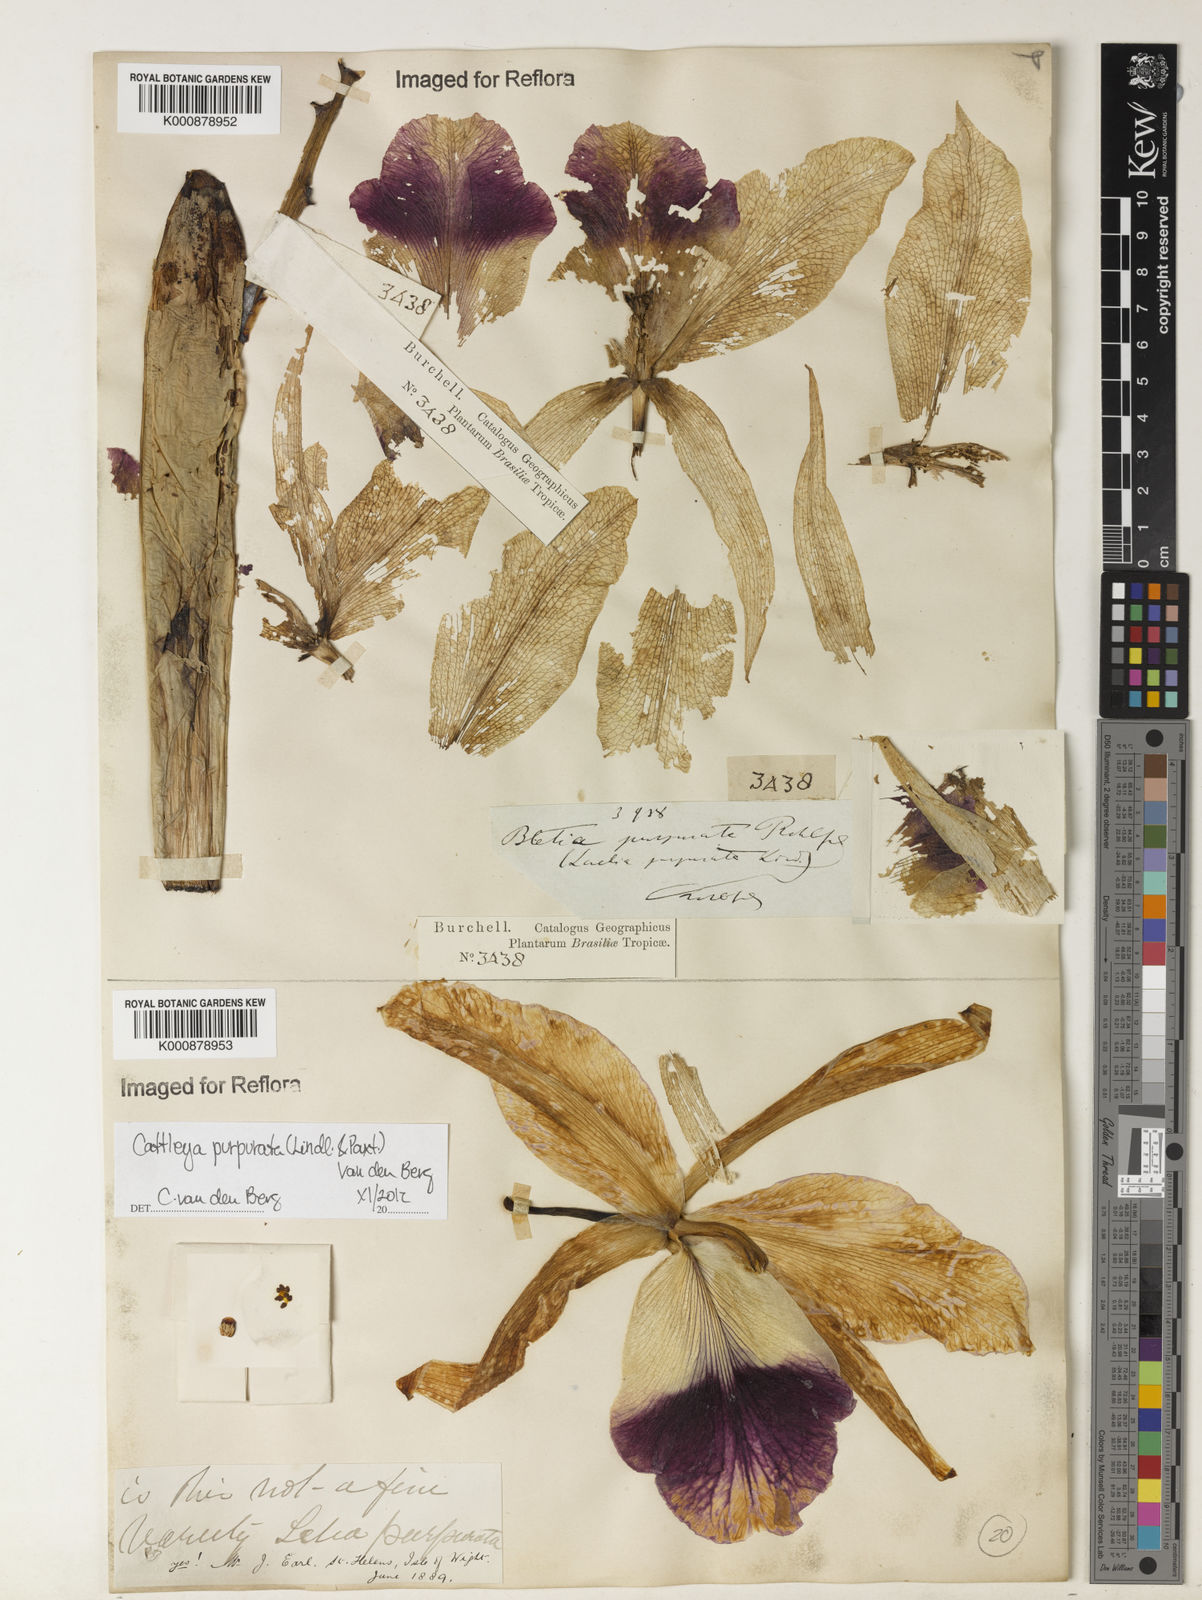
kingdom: Plantae
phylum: Tracheophyta
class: Liliopsida
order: Asparagales
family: Orchidaceae
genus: Cattleya
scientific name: Cattleya
